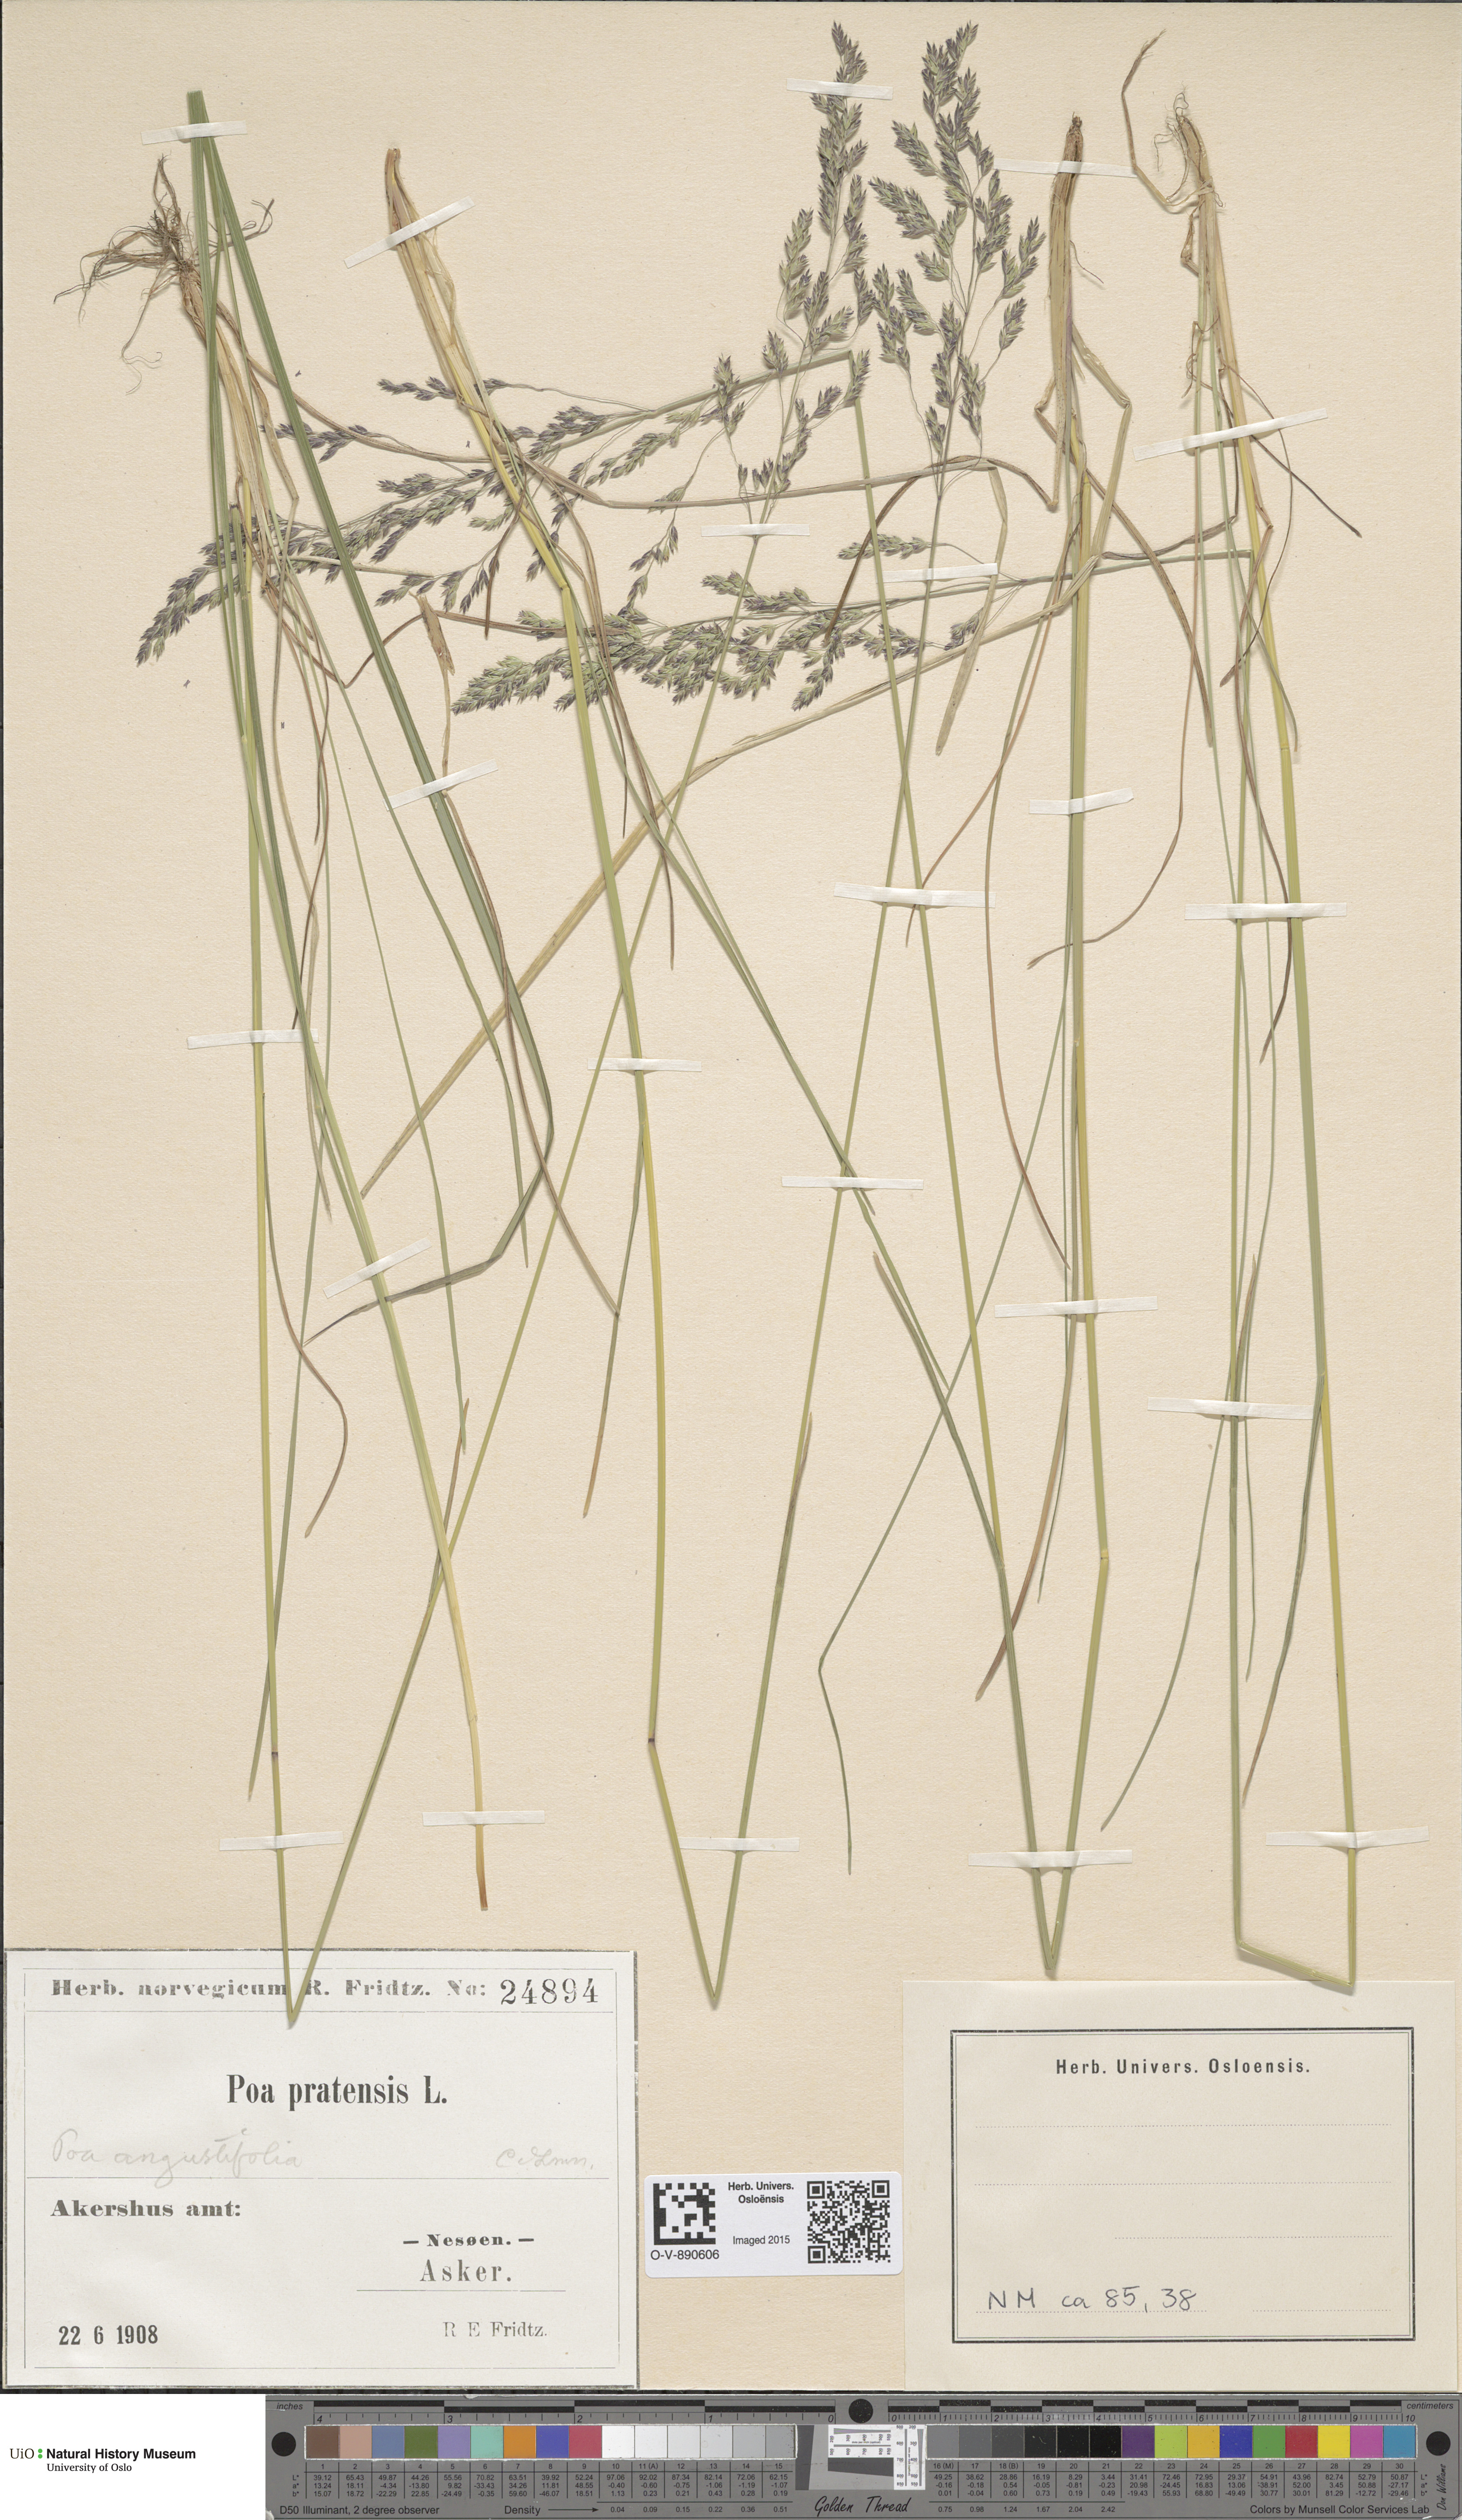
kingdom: Plantae
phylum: Tracheophyta
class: Liliopsida
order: Poales
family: Poaceae
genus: Poa
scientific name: Poa angustifolia
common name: Narrow-leaved meadow-grass
